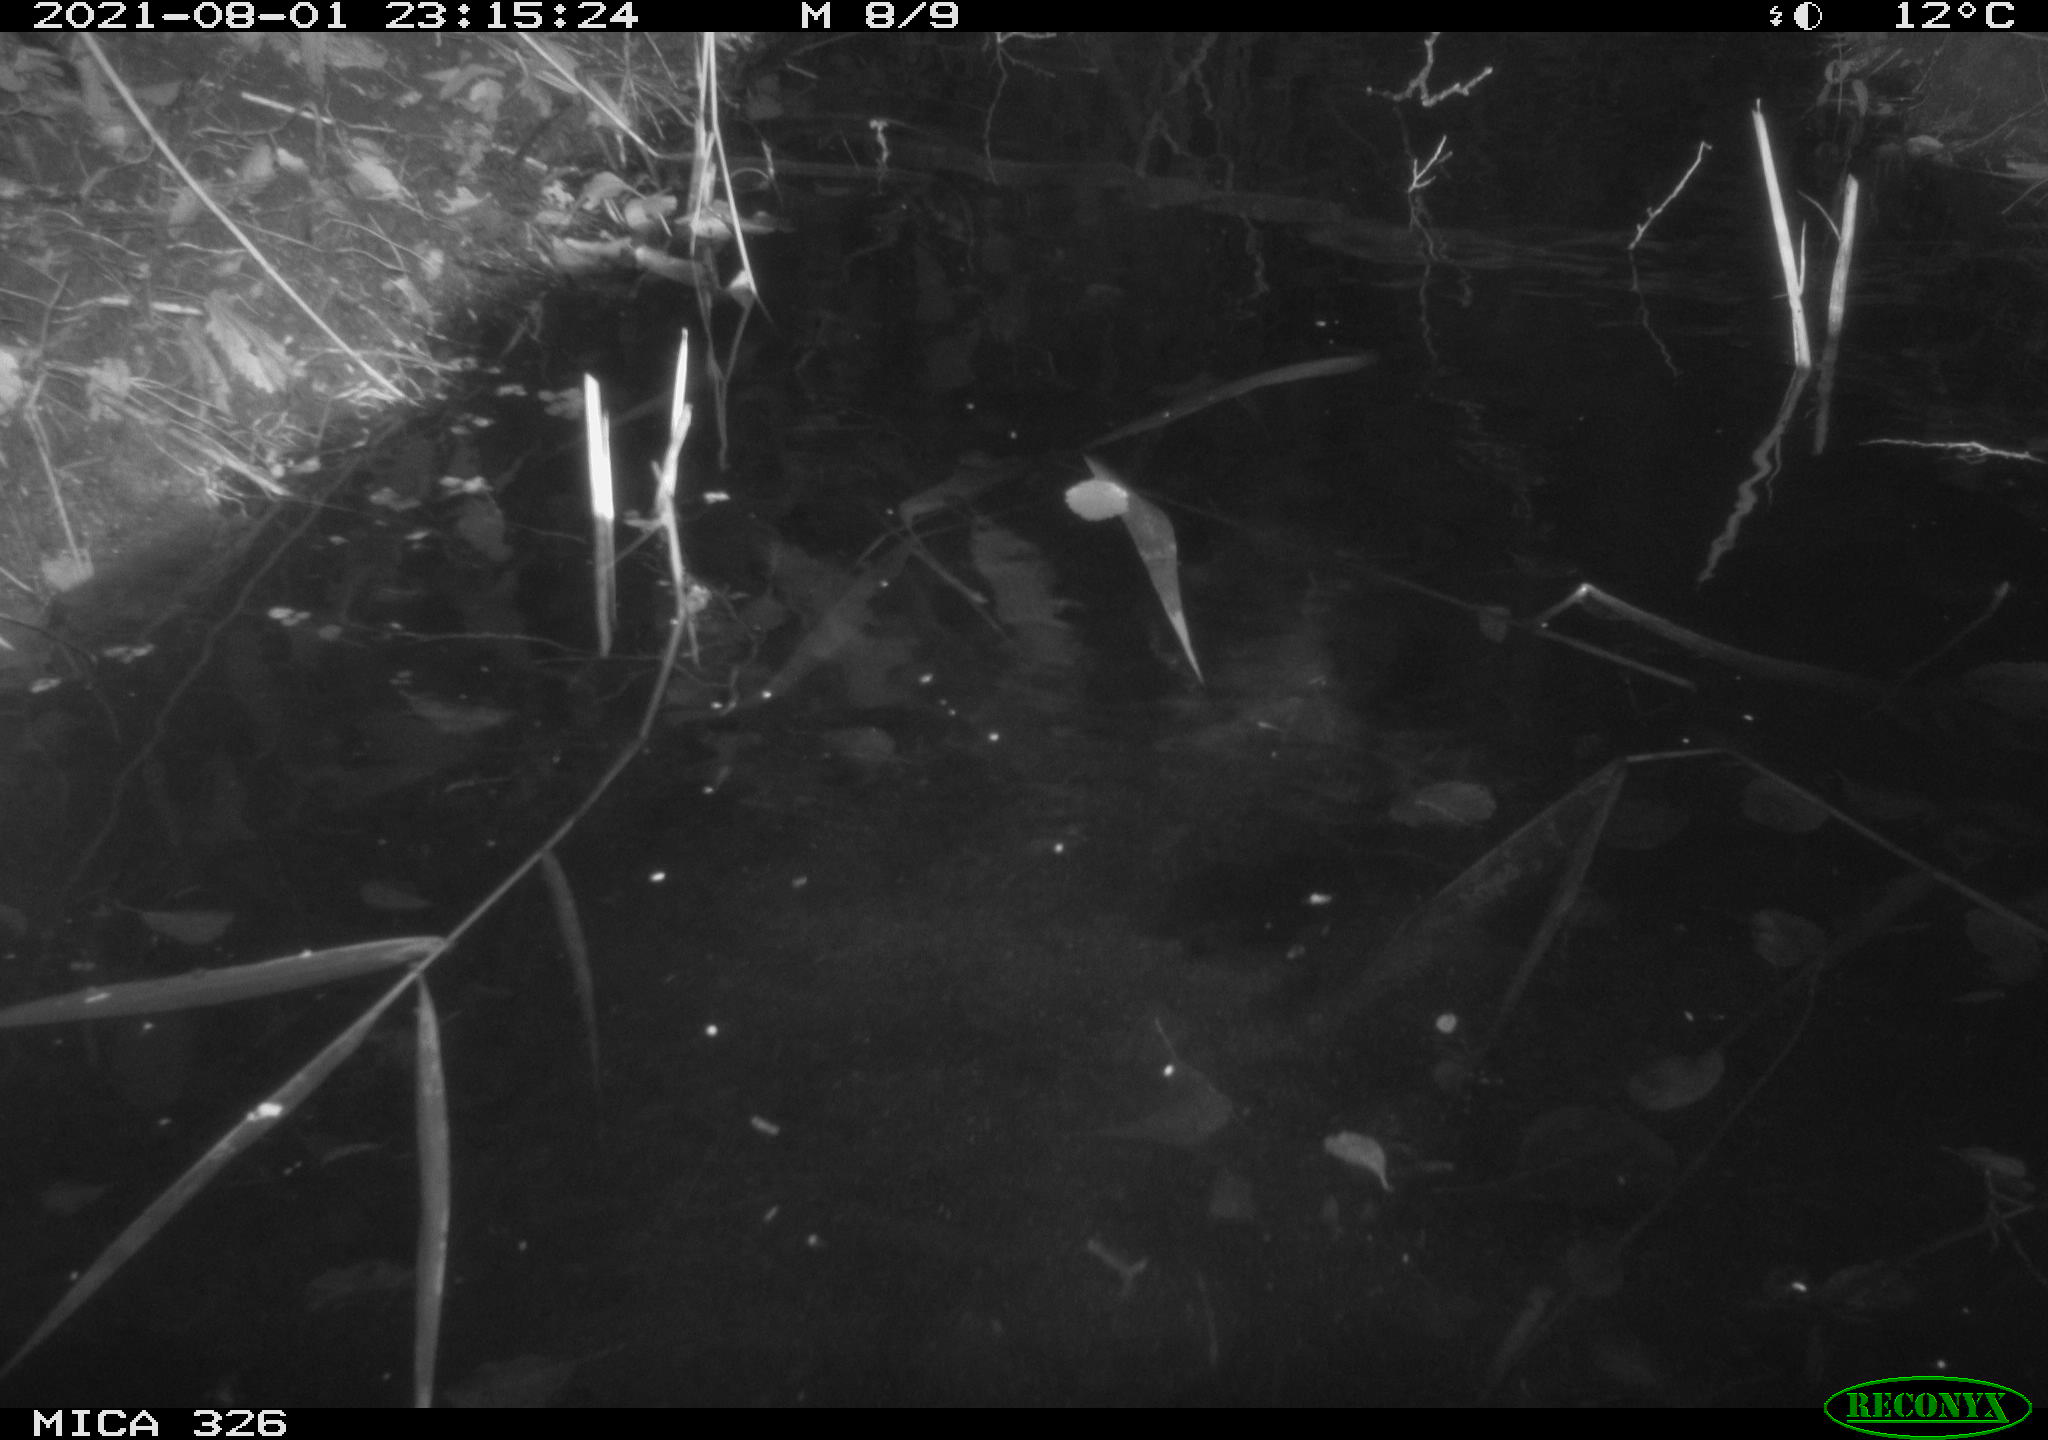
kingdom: Animalia
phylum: Chordata
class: Mammalia
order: Rodentia
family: Cricetidae
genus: Ondatra
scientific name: Ondatra zibethicus
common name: Muskrat
